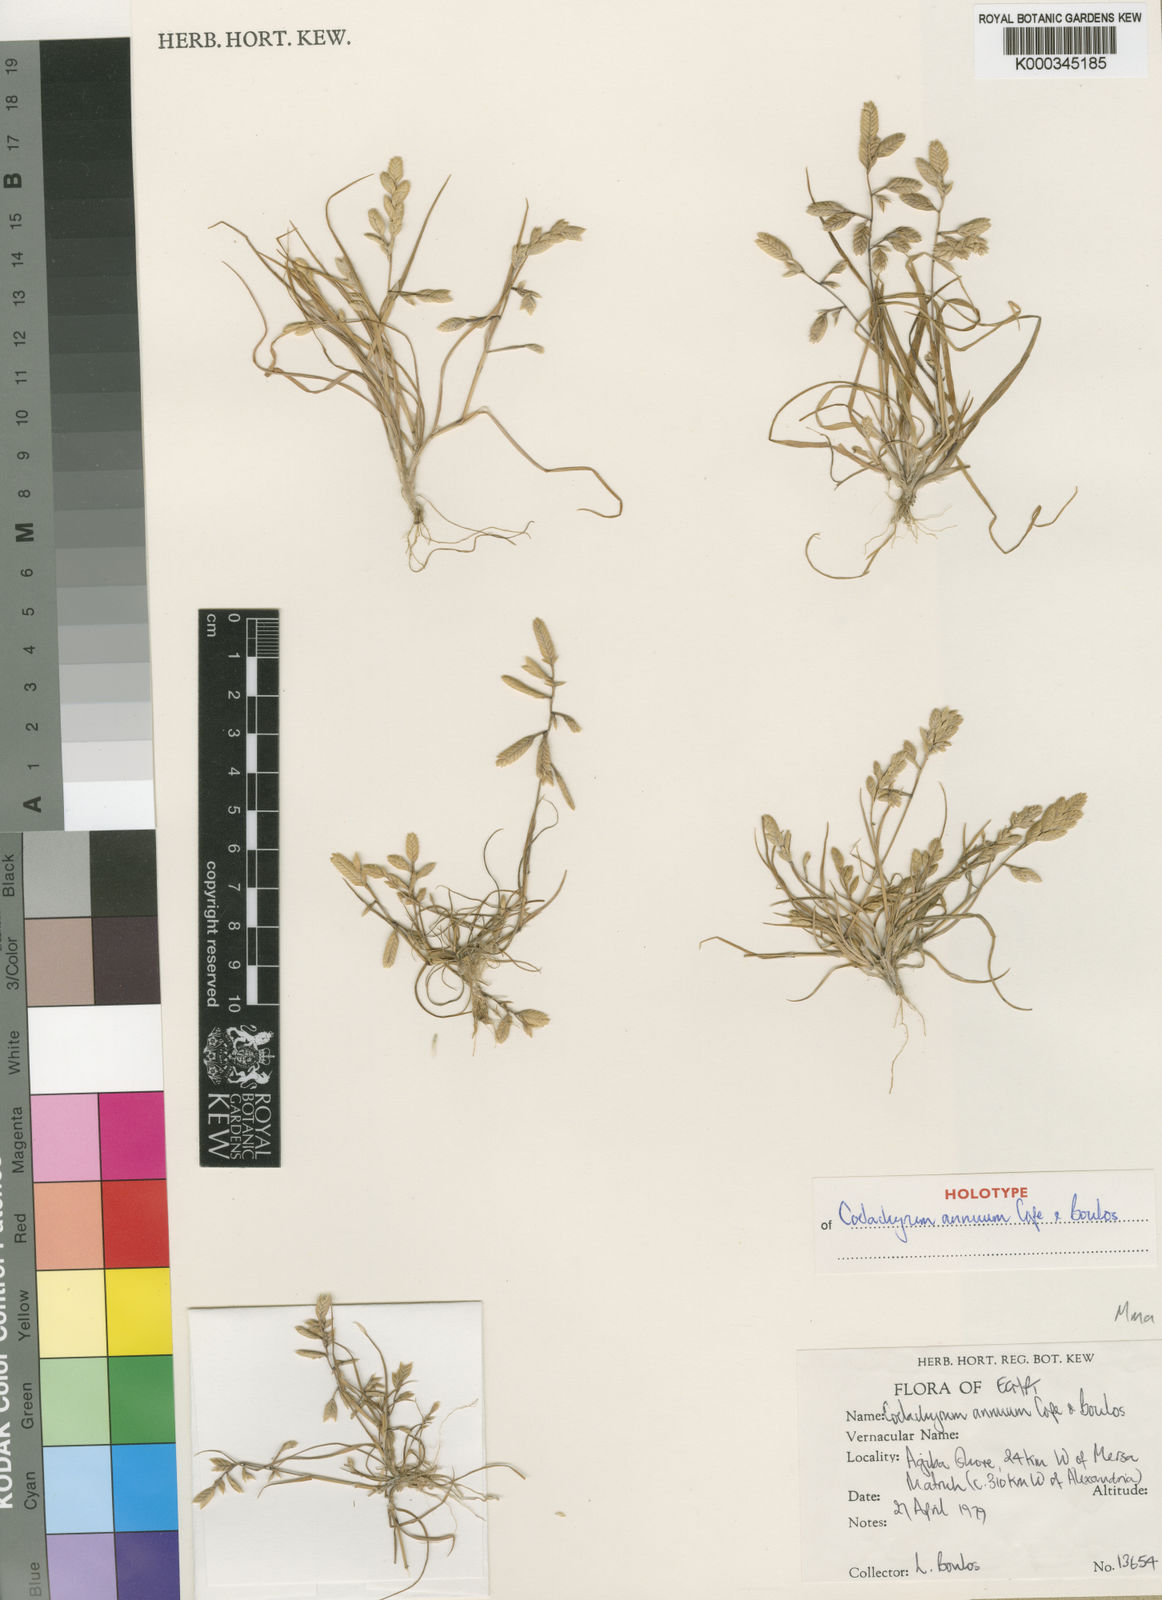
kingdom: Plantae
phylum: Tracheophyta
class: Liliopsida
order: Poales
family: Poaceae
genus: Desmazeria
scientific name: Desmazeria philistaea
